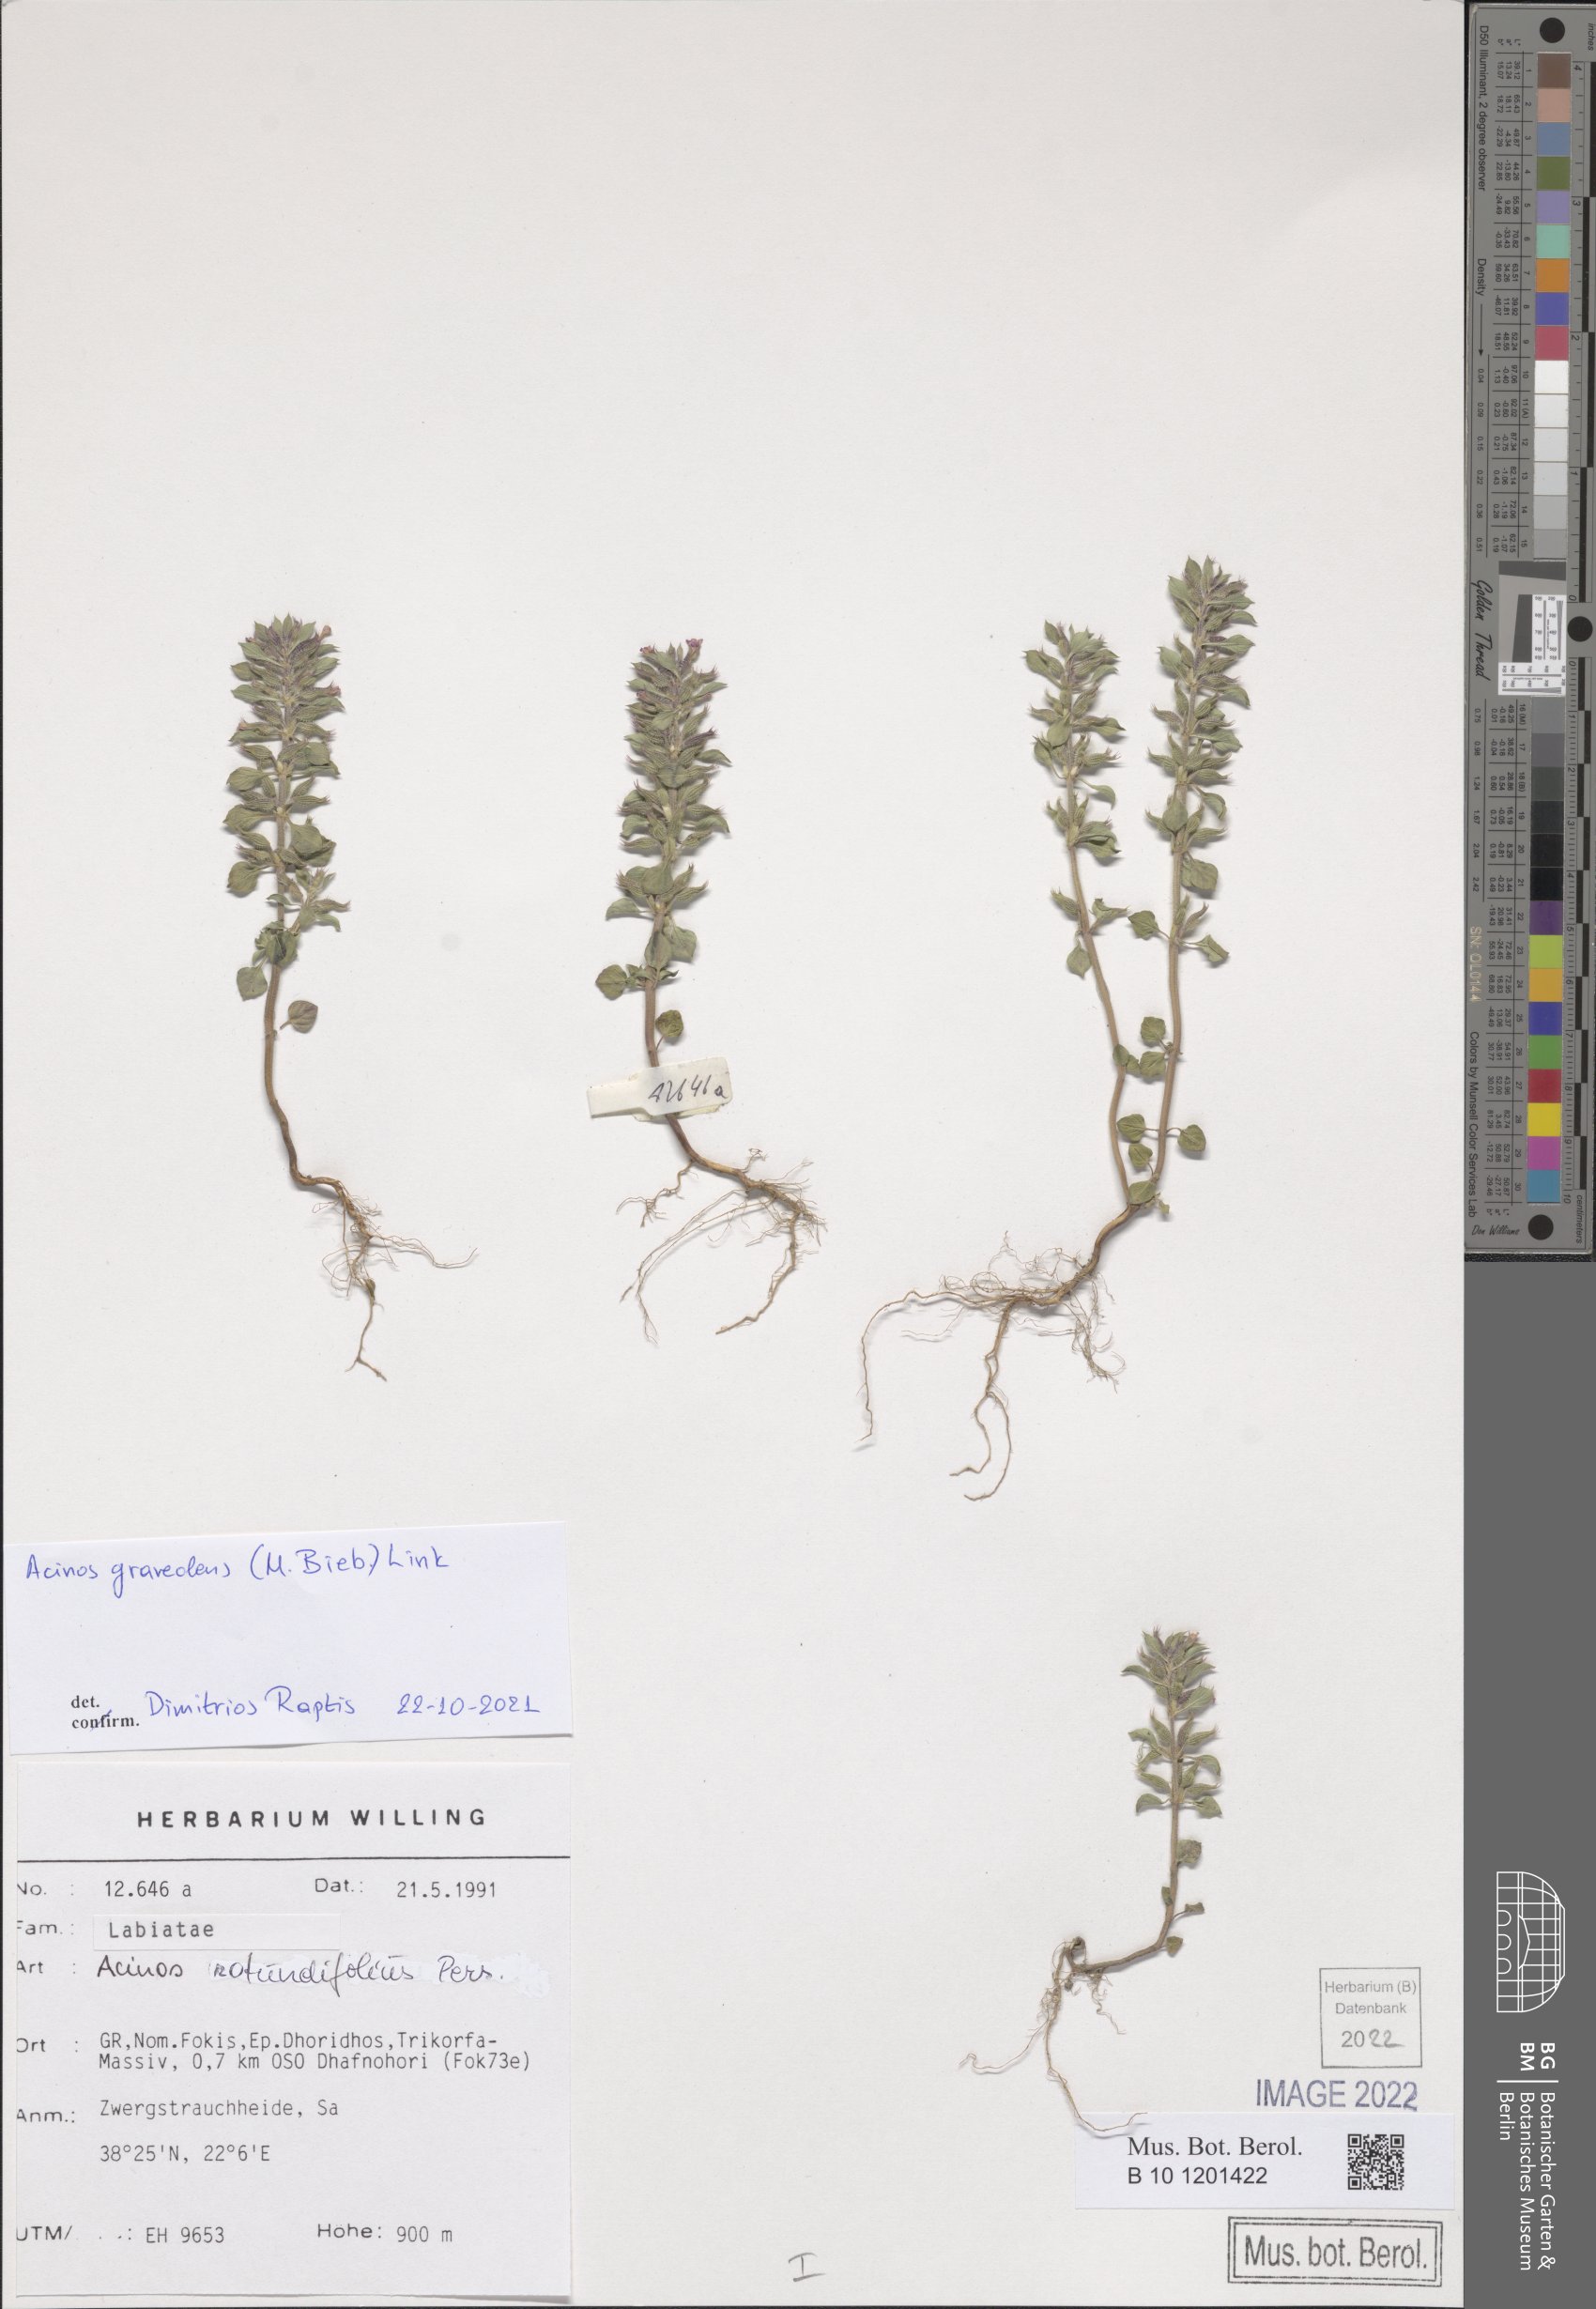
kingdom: Plantae
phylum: Tracheophyta
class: Magnoliopsida
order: Lamiales
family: Lamiaceae
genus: Clinopodium
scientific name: Clinopodium graveolens
